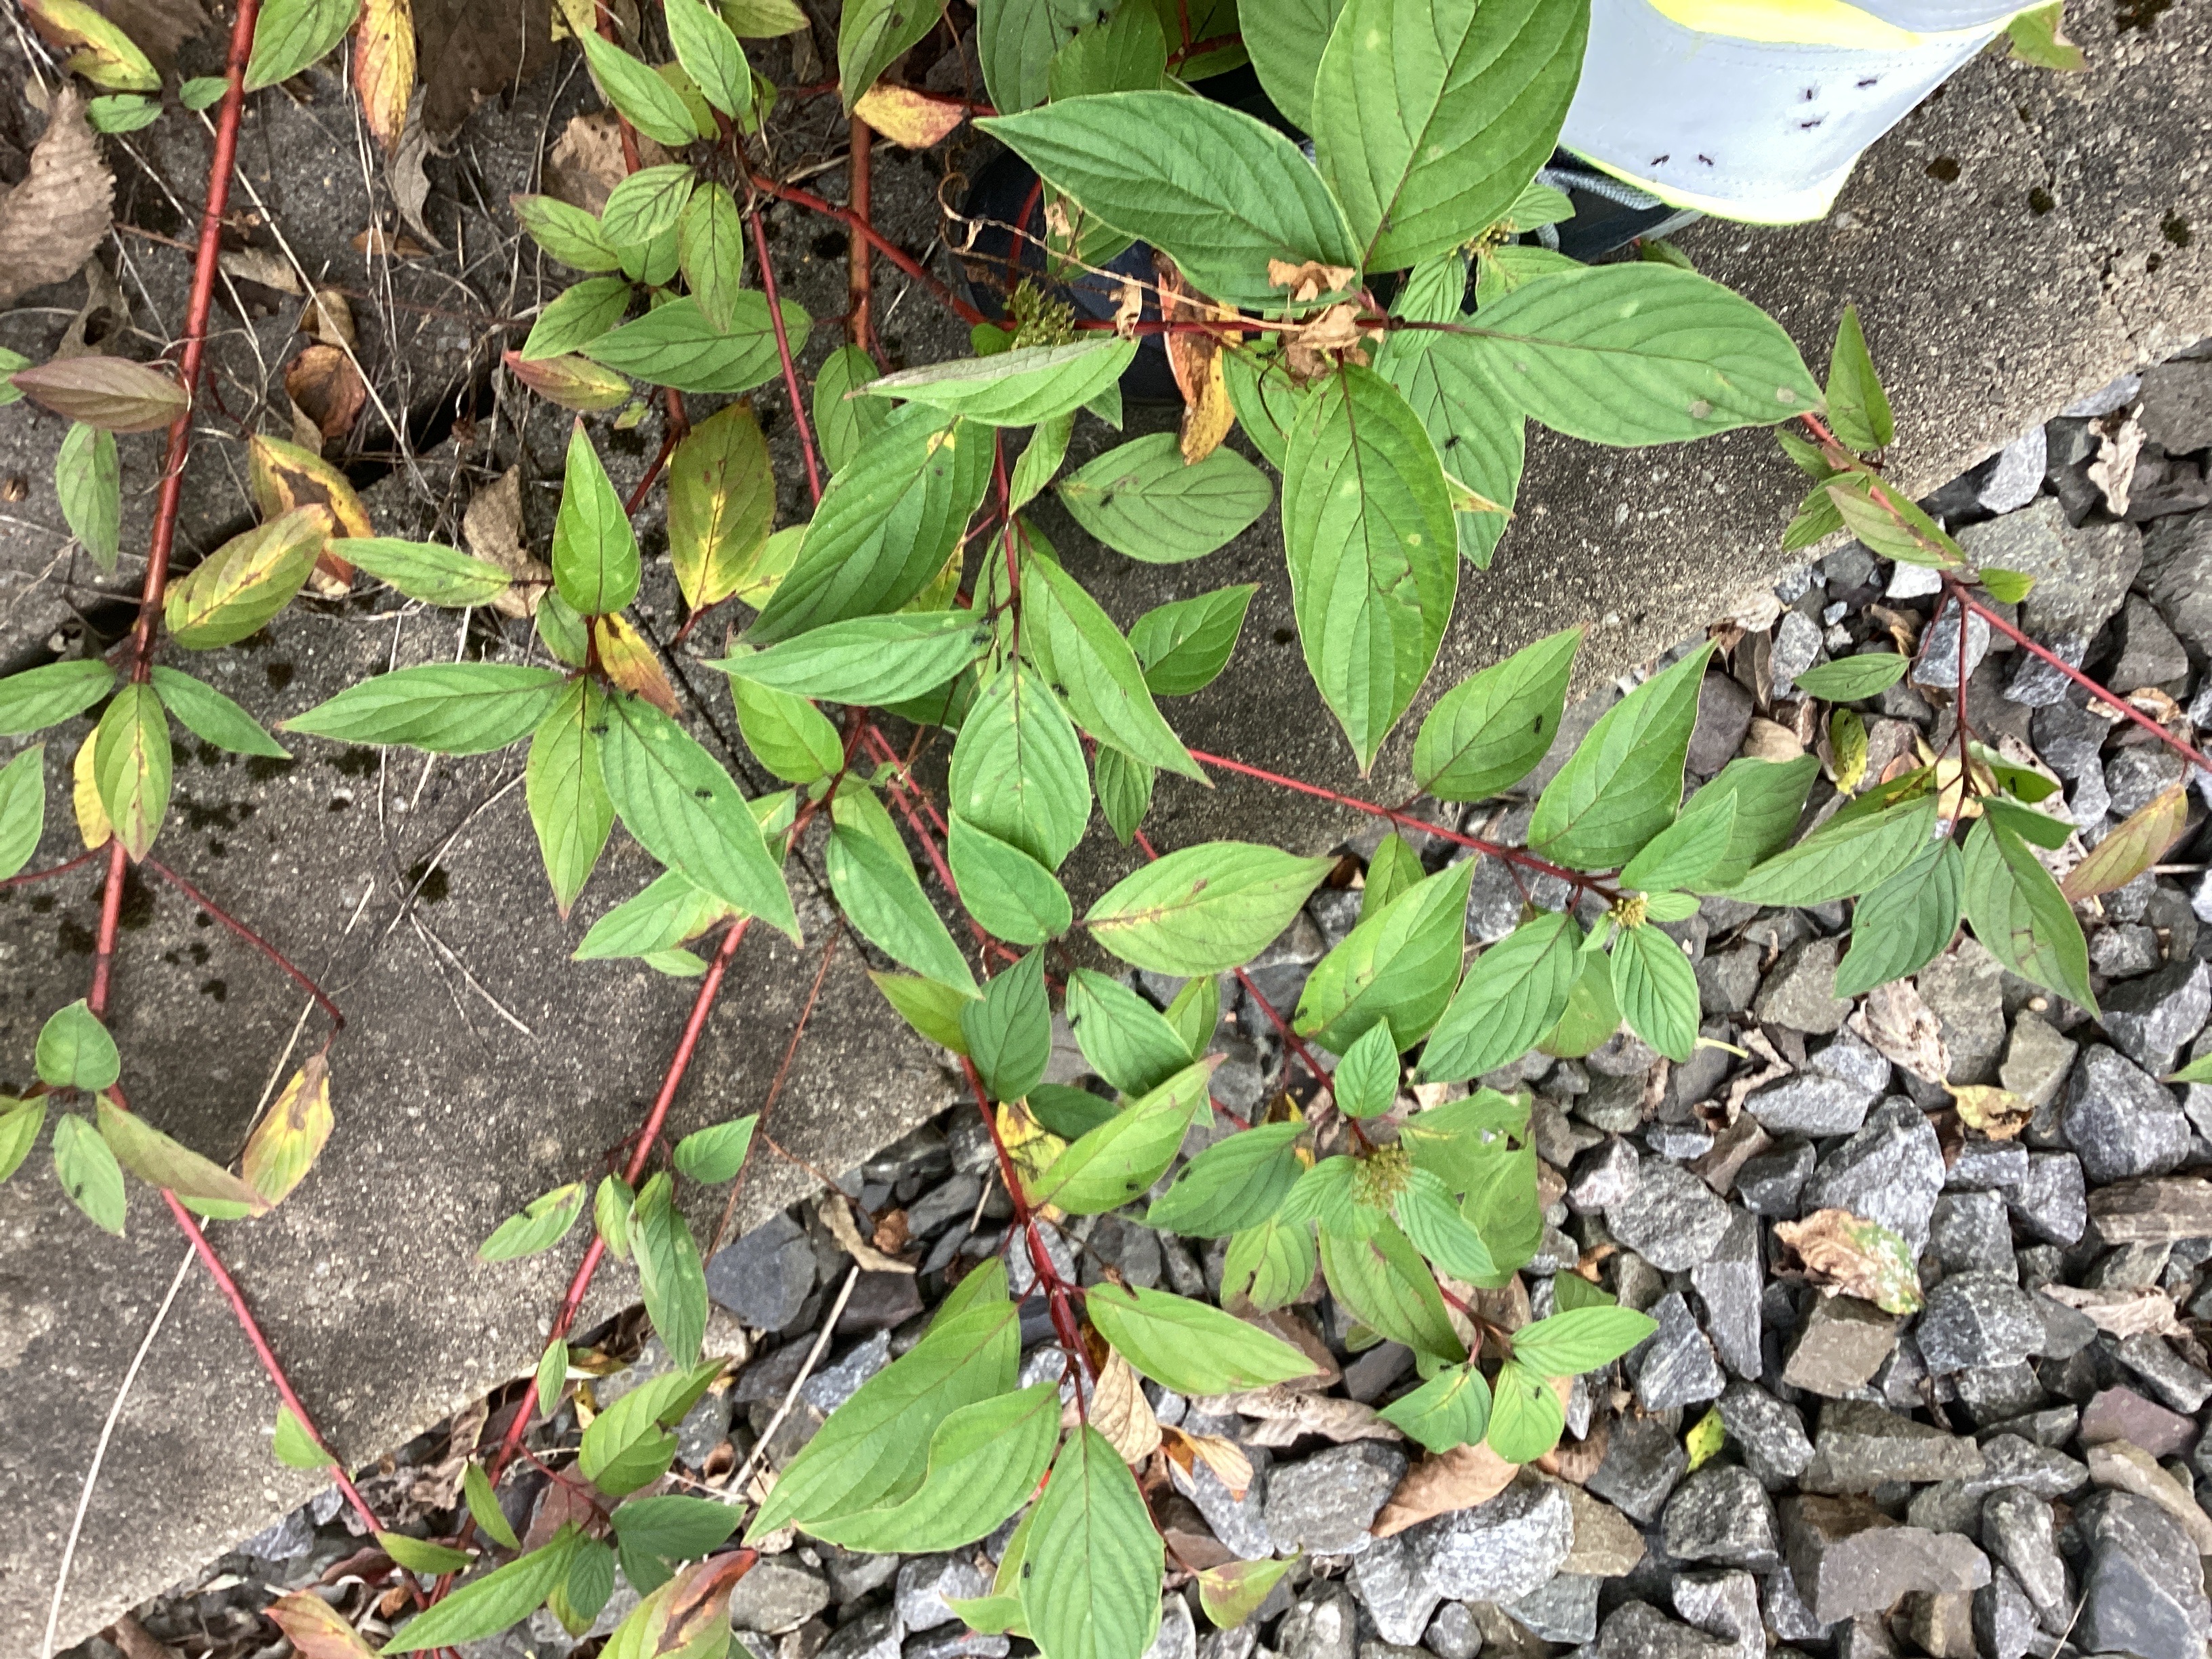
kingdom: Plantae
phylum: Tracheophyta
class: Magnoliopsida
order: Cornales
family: Cornaceae
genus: Cornus
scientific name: Cornus sericea
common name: alaskakornell
